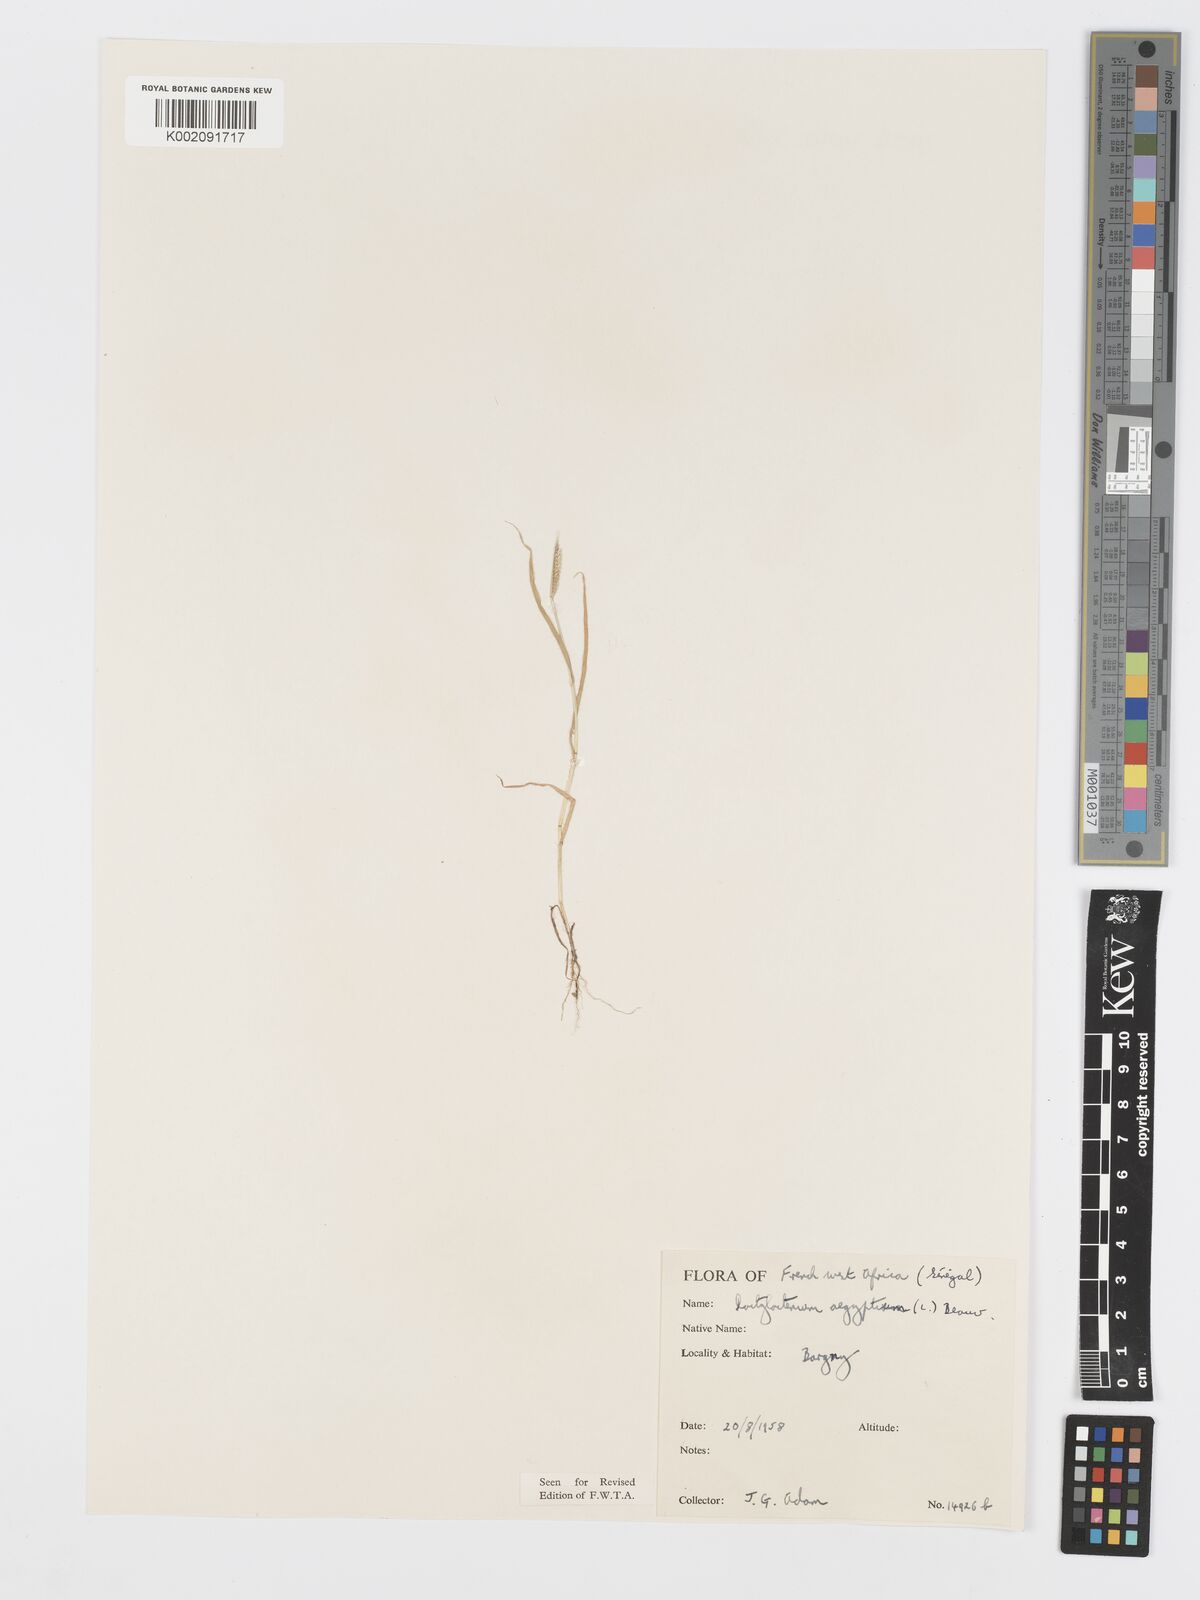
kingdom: Plantae
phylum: Tracheophyta
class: Liliopsida
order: Poales
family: Poaceae
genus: Dactyloctenium
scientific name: Dactyloctenium aegyptium
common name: Egyptian grass
